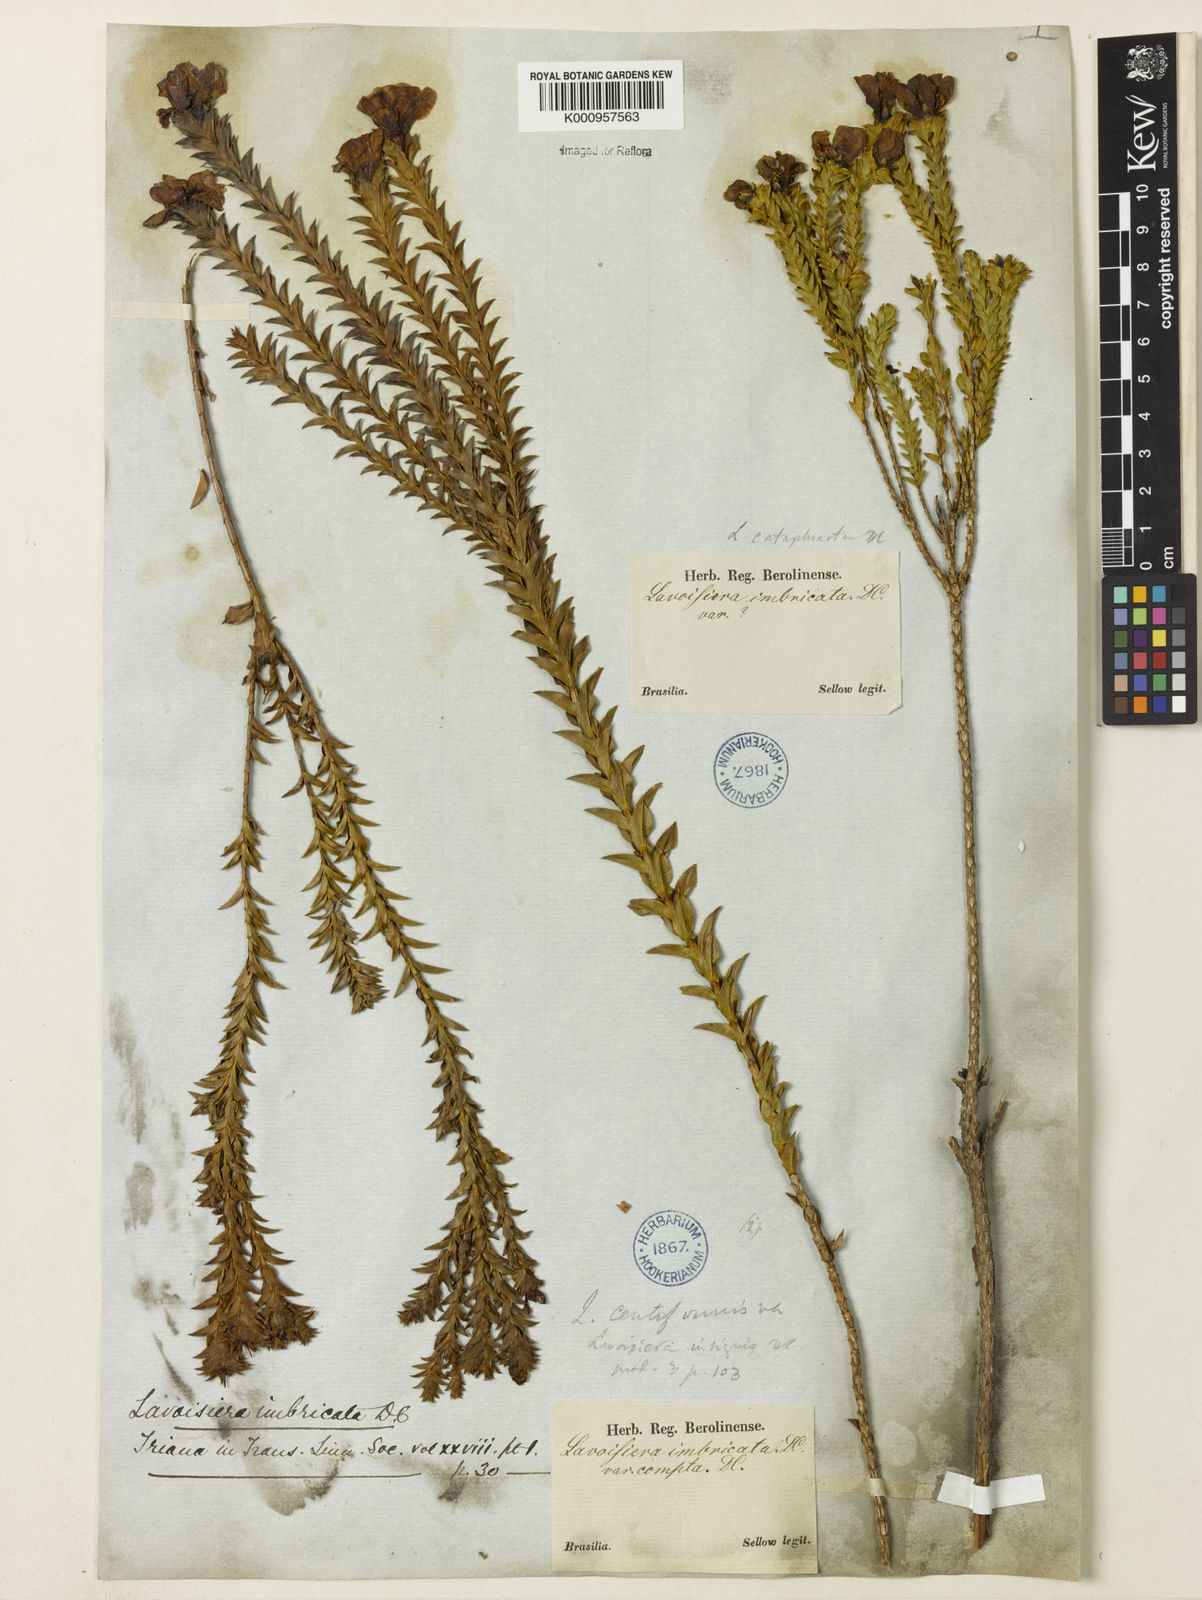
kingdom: Plantae
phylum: Tracheophyta
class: Magnoliopsida
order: Myrtales
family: Melastomataceae
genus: Microlicia
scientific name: Microlicia cataphracta
